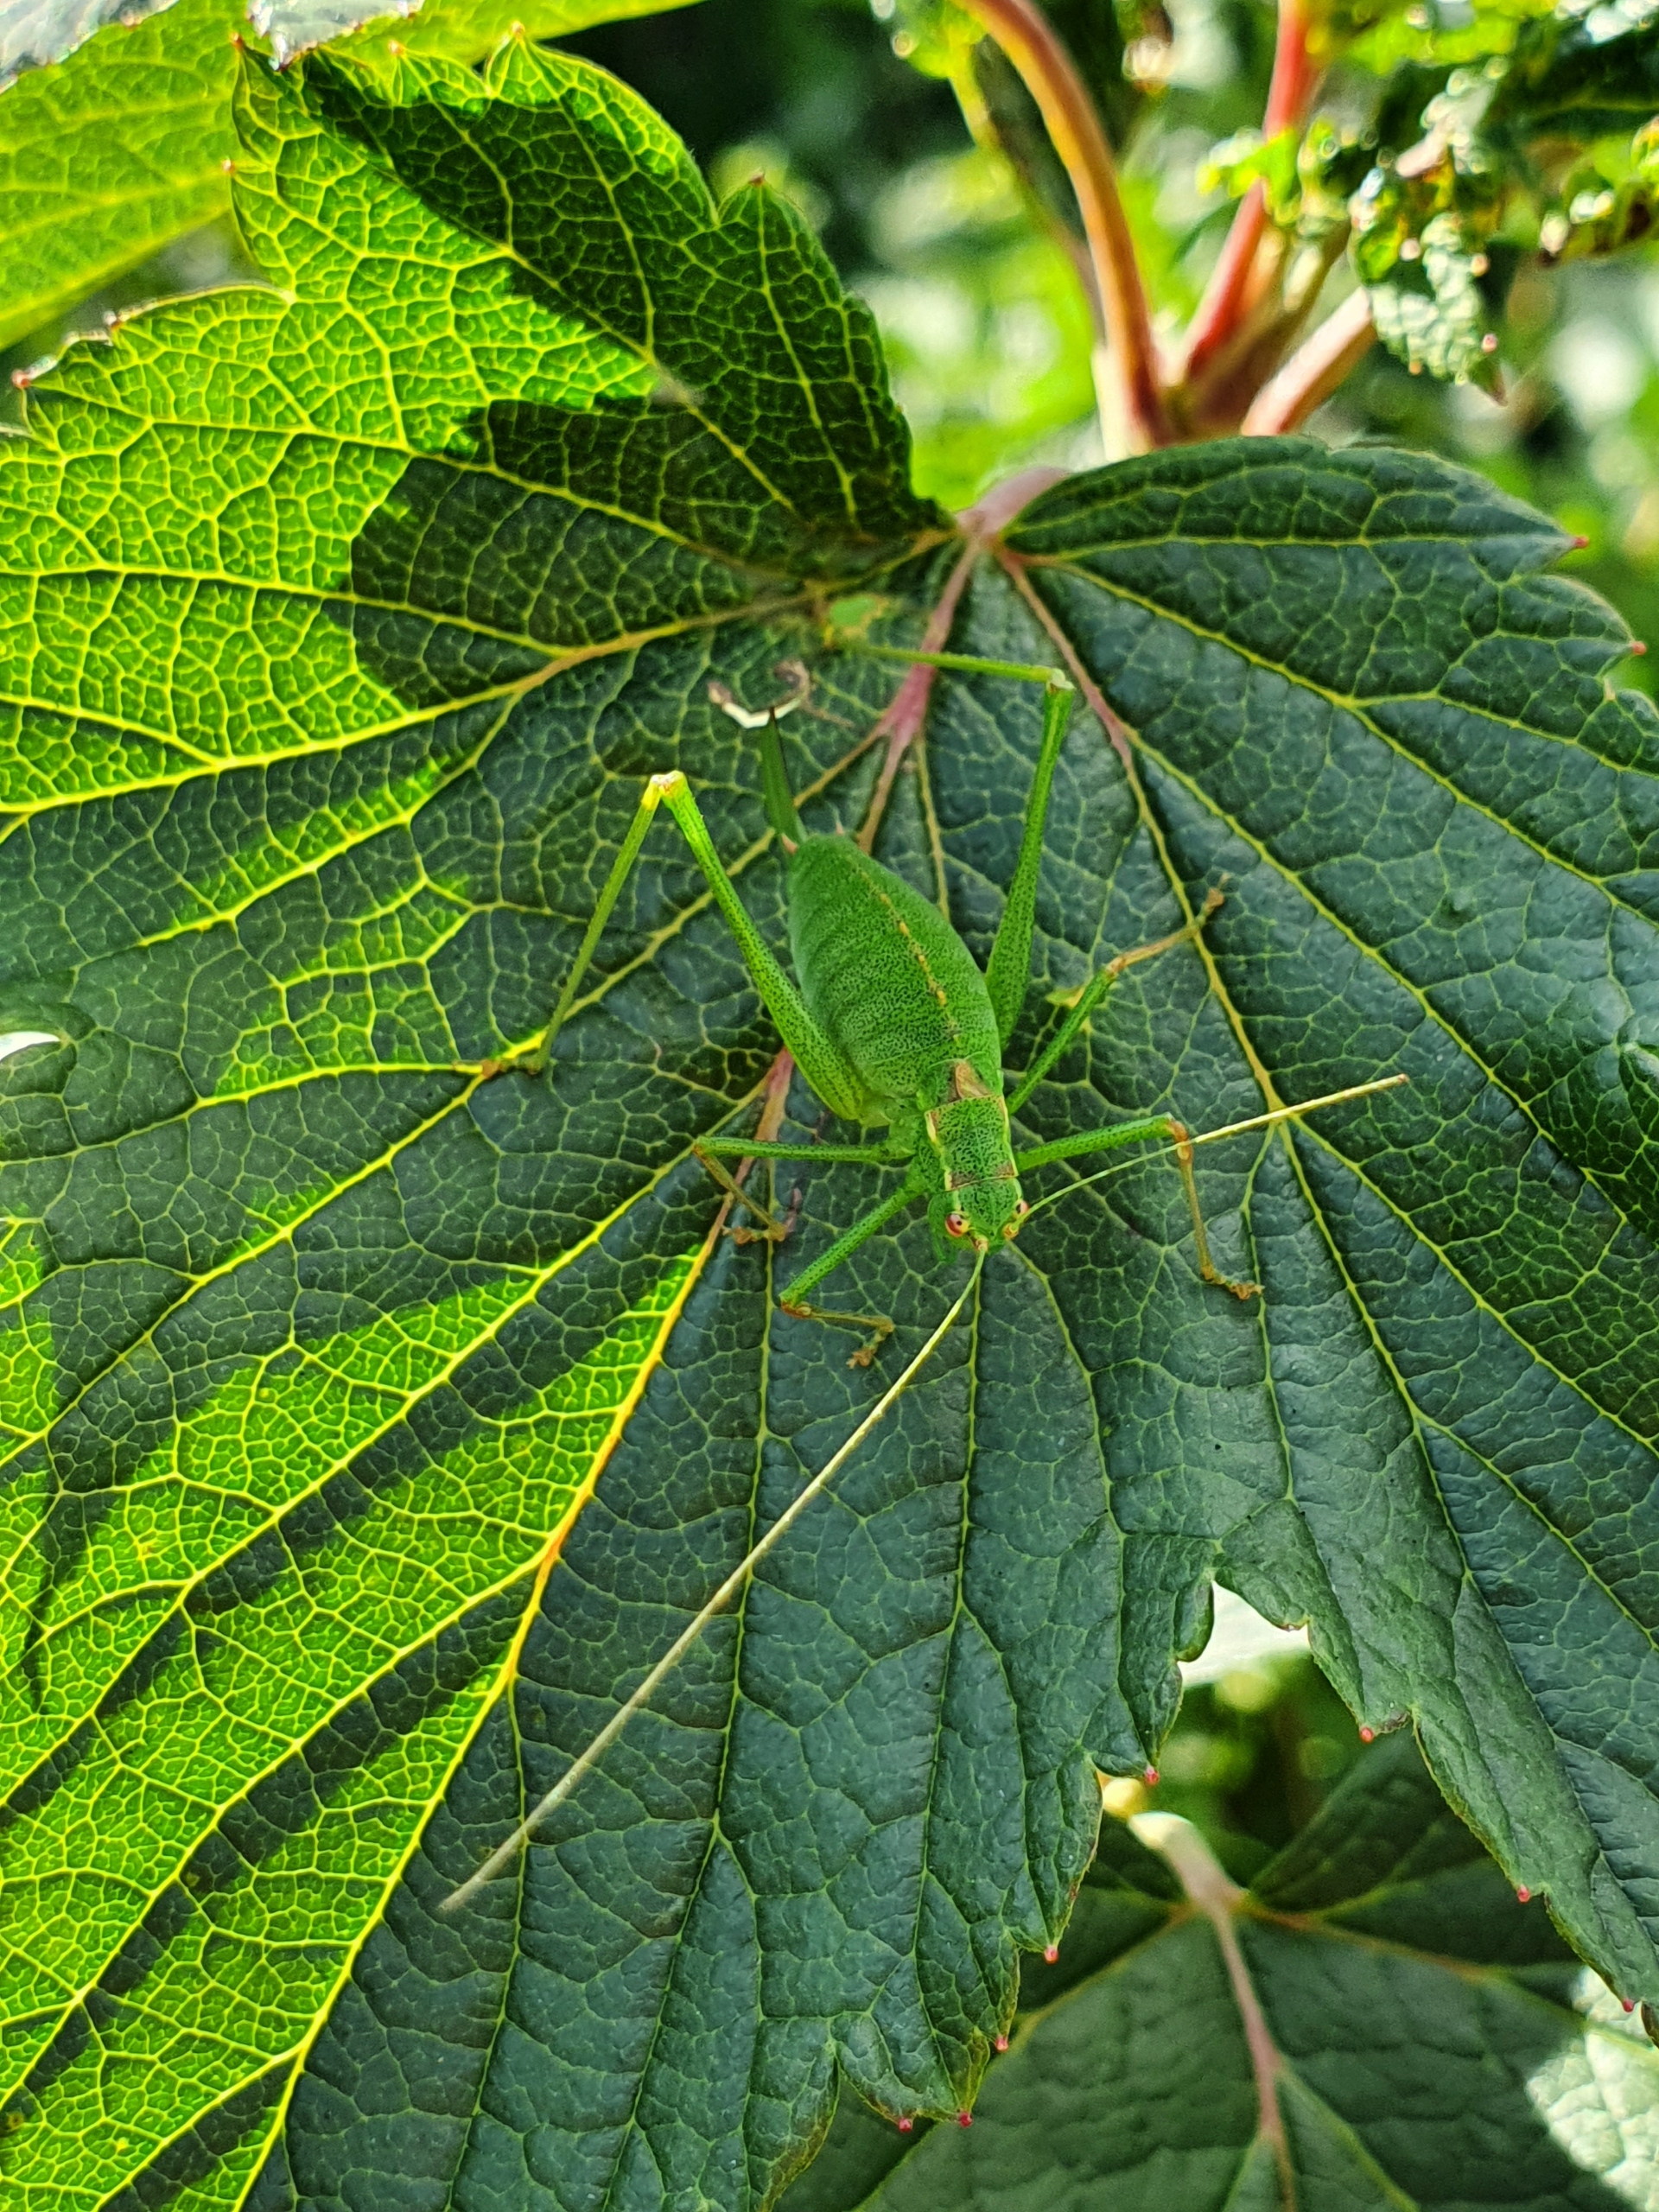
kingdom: Animalia
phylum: Arthropoda
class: Insecta
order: Orthoptera
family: Tettigoniidae
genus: Leptophyes
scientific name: Leptophyes punctatissima
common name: Krumknivgræshoppe
